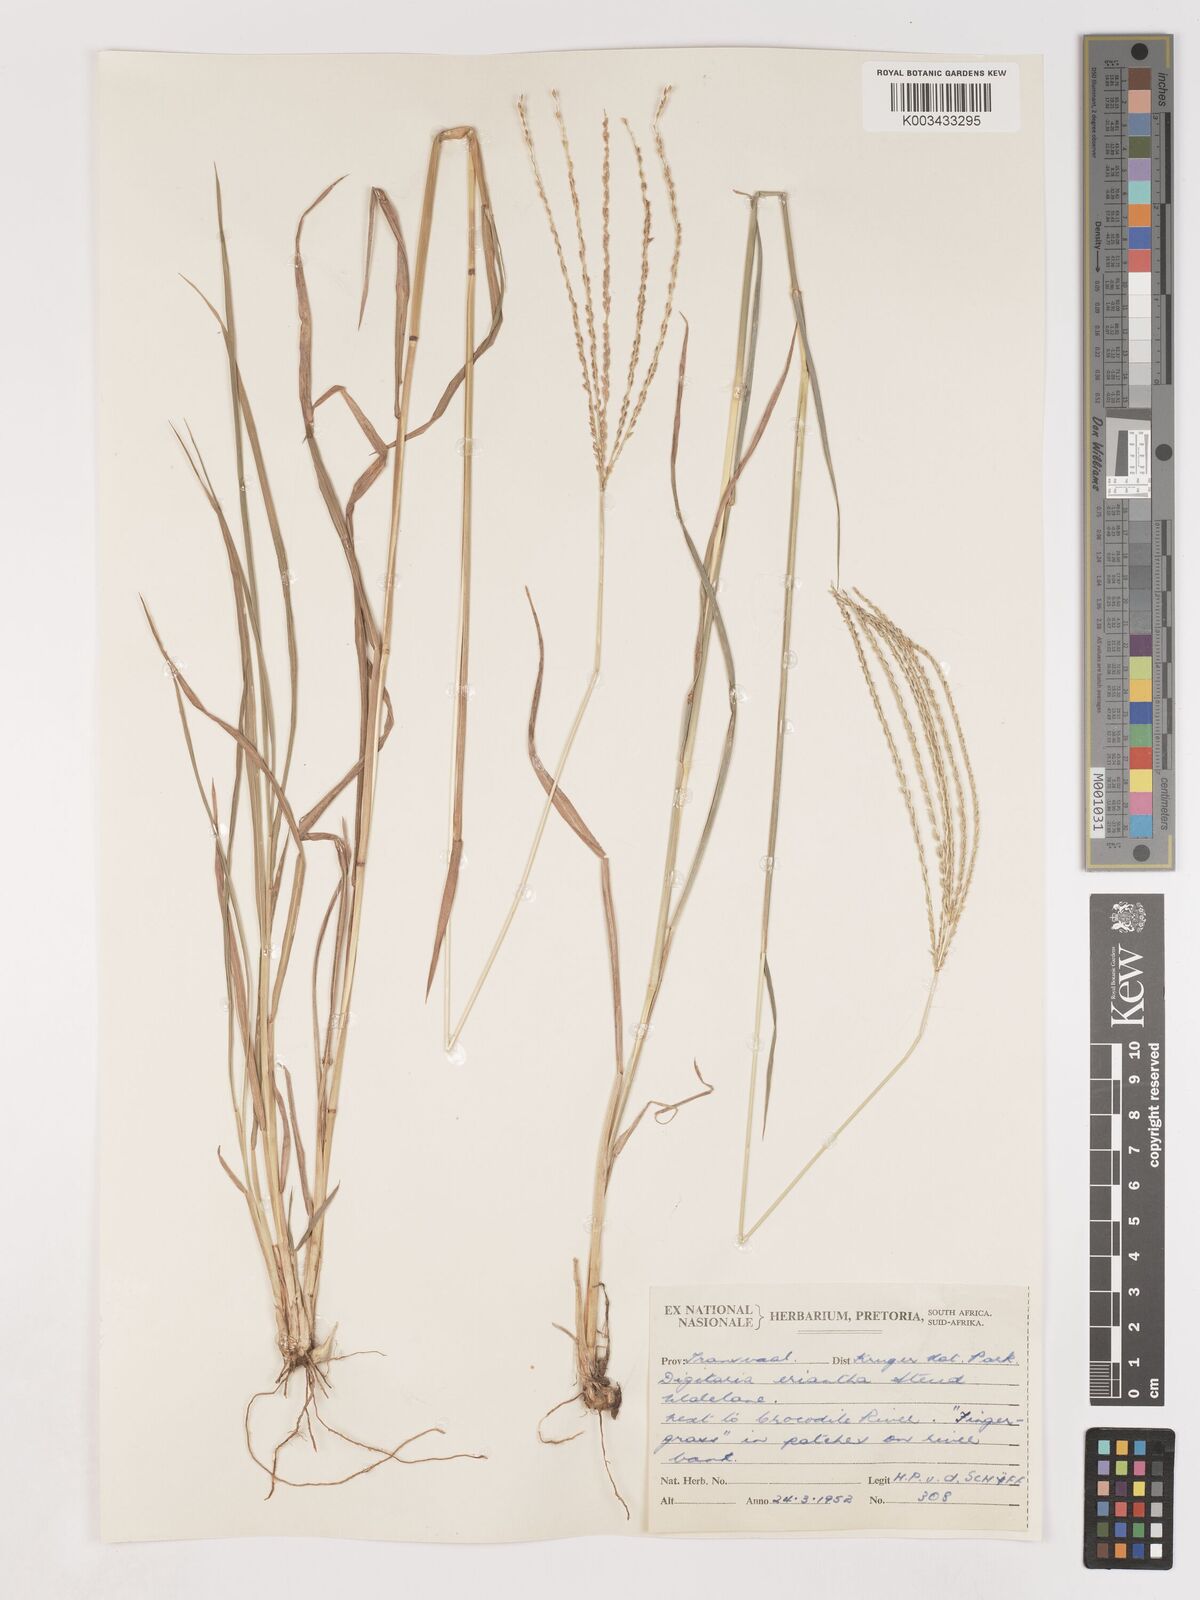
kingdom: Plantae
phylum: Tracheophyta
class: Liliopsida
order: Poales
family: Poaceae
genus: Digitaria
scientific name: Digitaria eriantha
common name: Digitgrass
